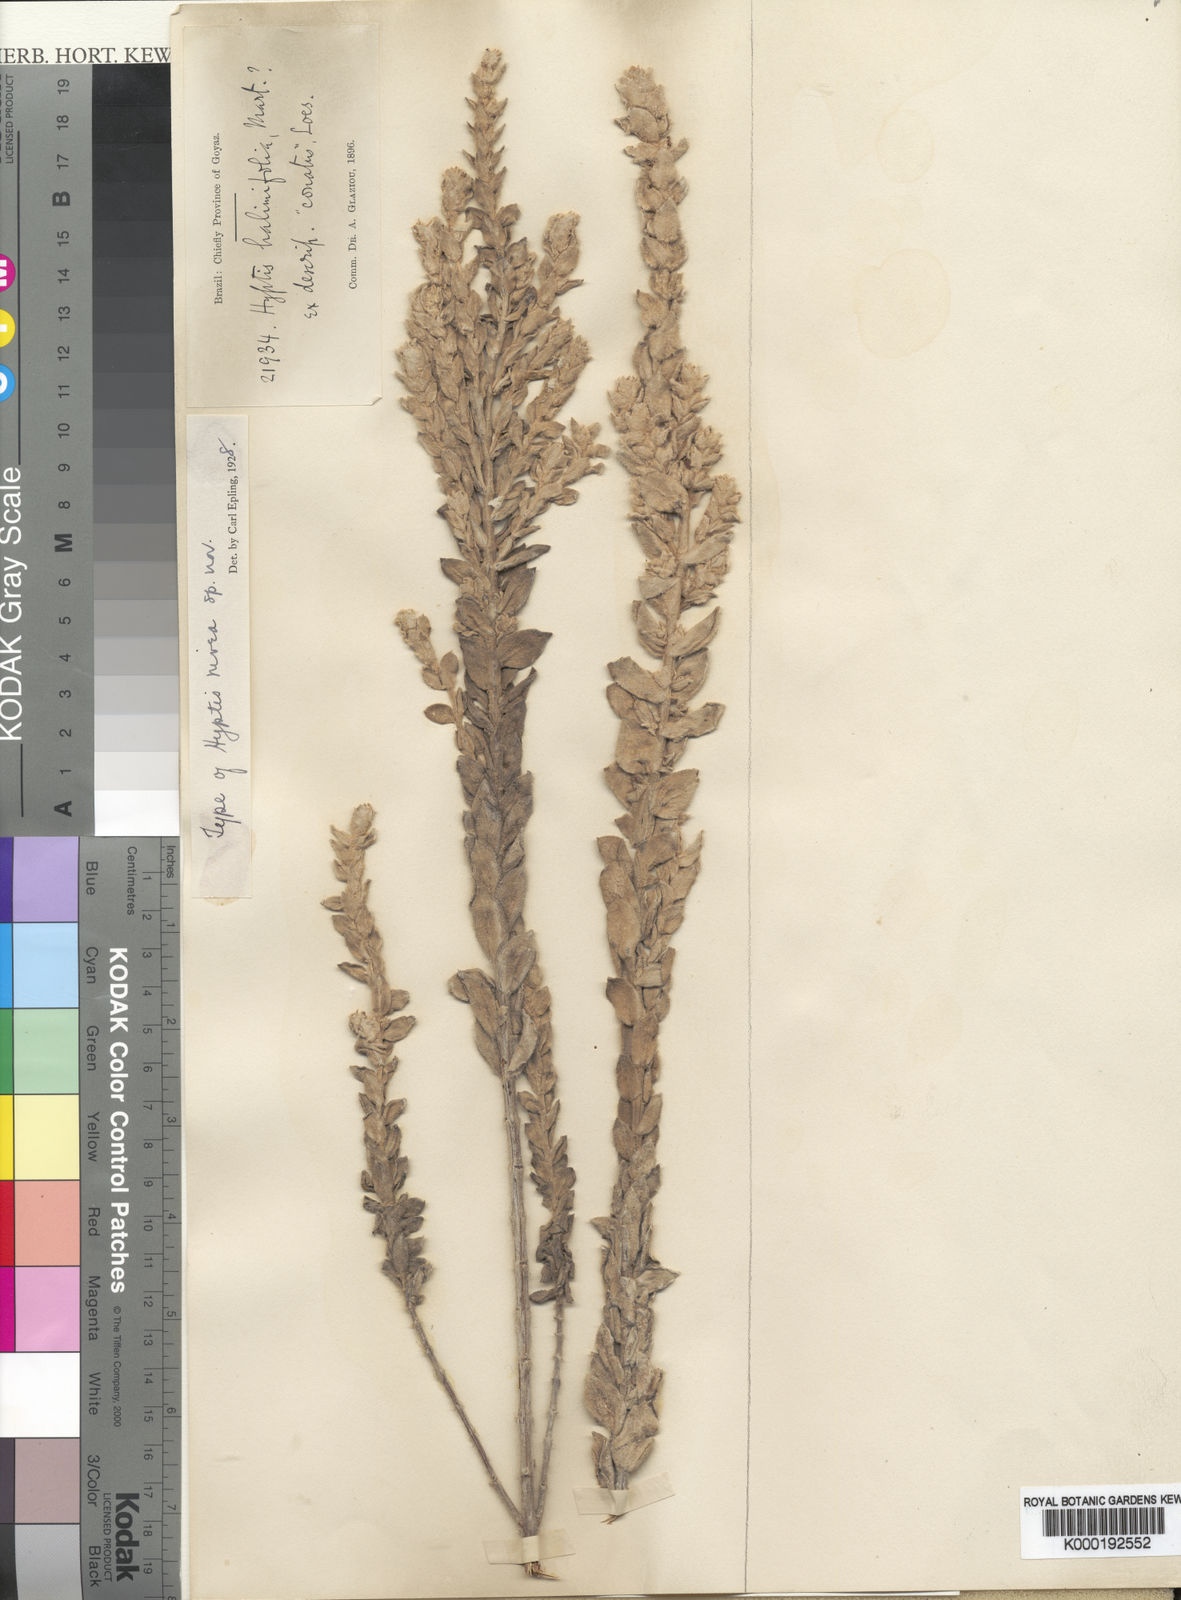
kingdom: Plantae
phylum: Tracheophyta
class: Magnoliopsida
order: Lamiales
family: Lamiaceae
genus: Oocephalus
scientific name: Oocephalus niveus
